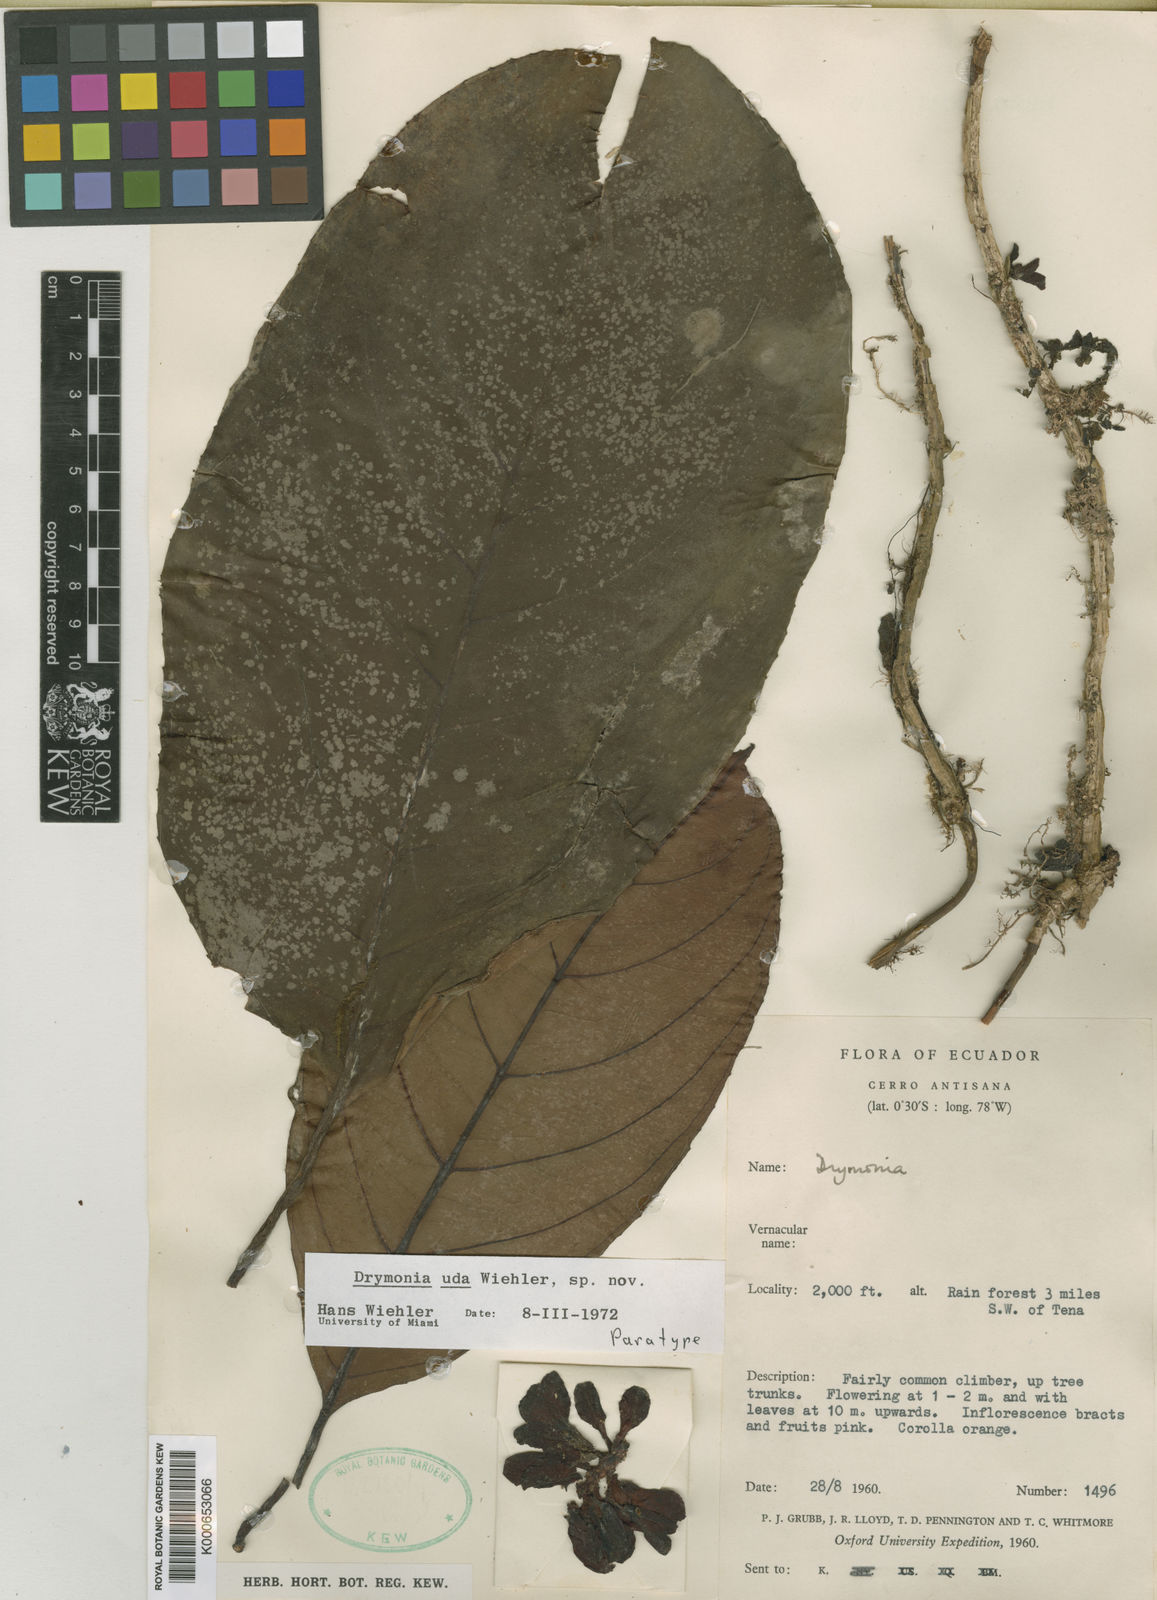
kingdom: Plantae
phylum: Tracheophyta
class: Magnoliopsida
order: Lamiales
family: Gesneriaceae
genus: Drymonia
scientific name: Drymonia
